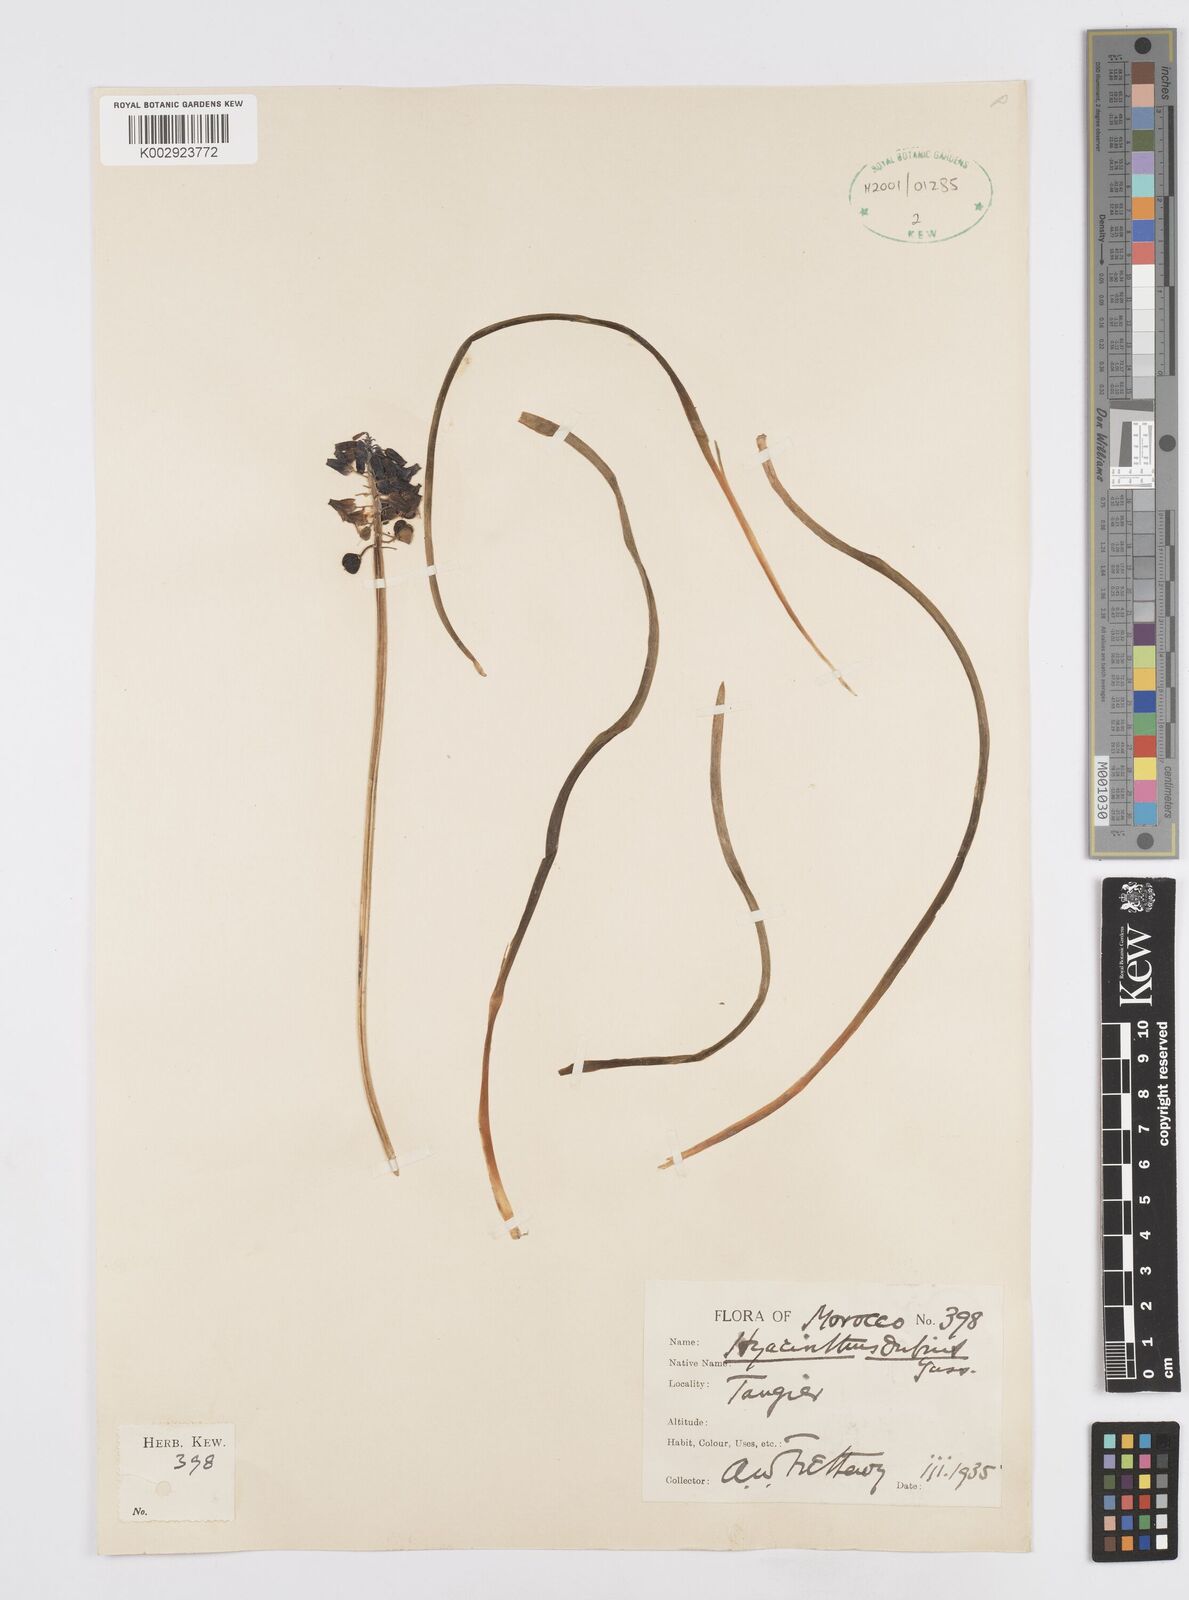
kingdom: Plantae
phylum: Tracheophyta
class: Liliopsida
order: Asparagales
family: Asparagaceae
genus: Muscari
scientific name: Muscari
